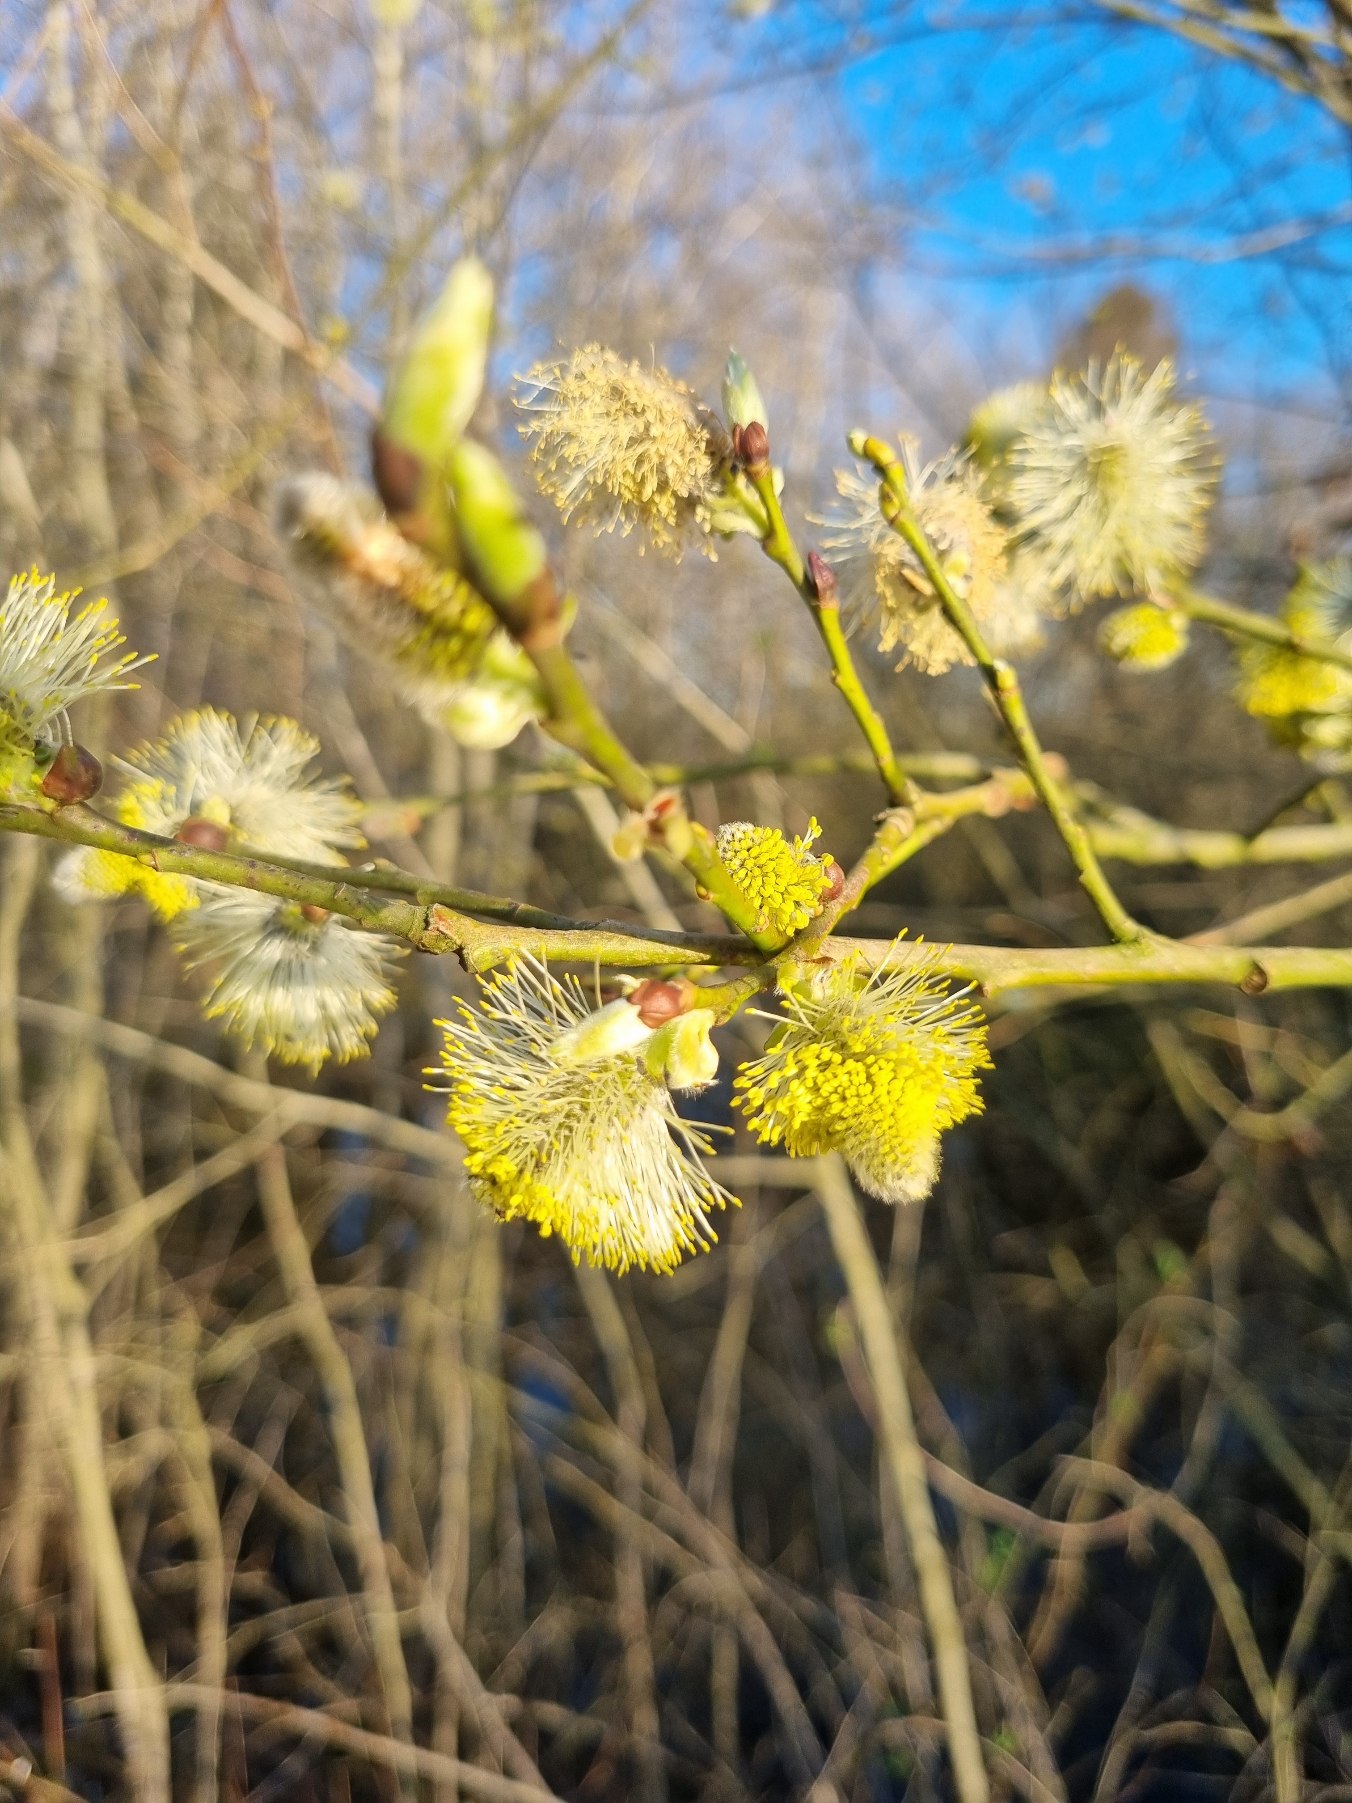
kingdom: Plantae
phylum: Tracheophyta
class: Magnoliopsida
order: Malpighiales
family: Salicaceae
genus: Salix
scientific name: Salix caprea
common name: Selje-pil
